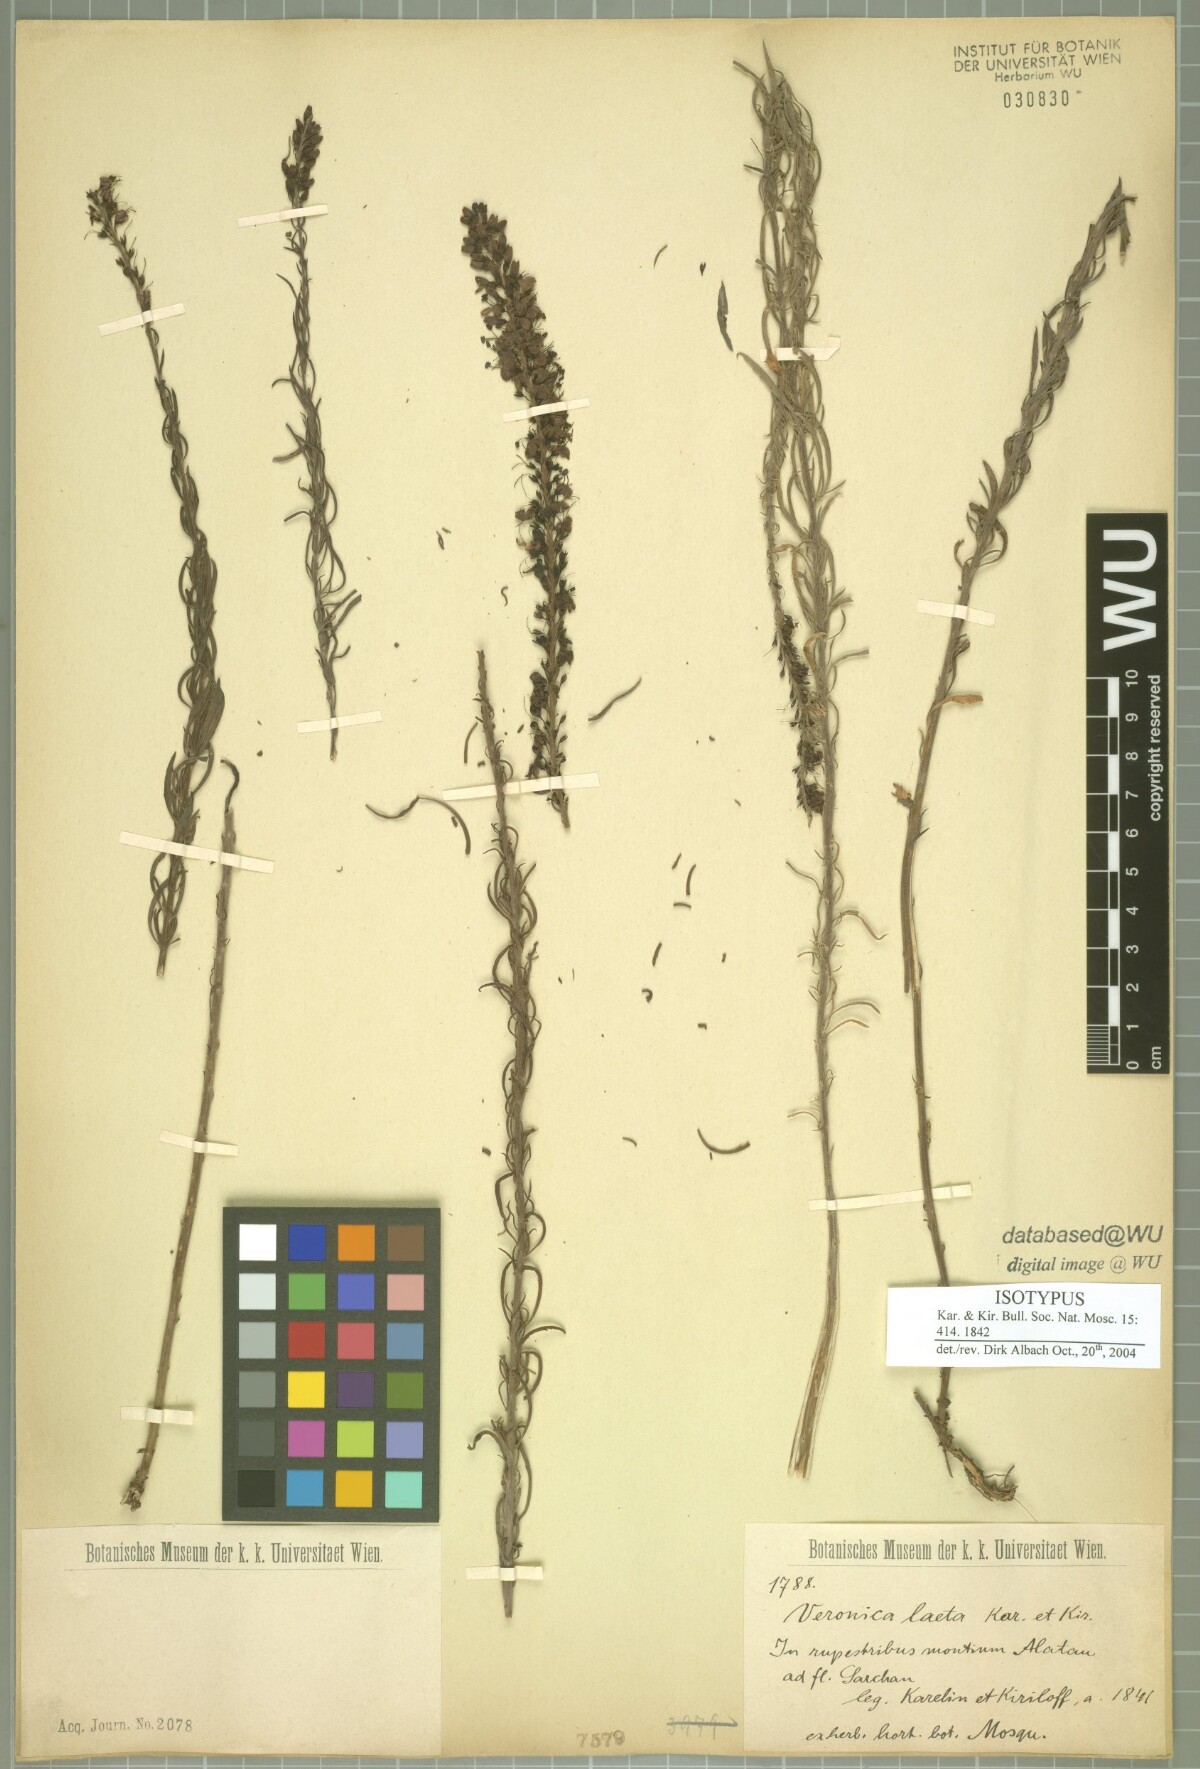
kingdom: Plantae
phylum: Tracheophyta
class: Magnoliopsida
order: Lamiales
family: Plantaginaceae
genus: Veronica
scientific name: Veronica laeta
